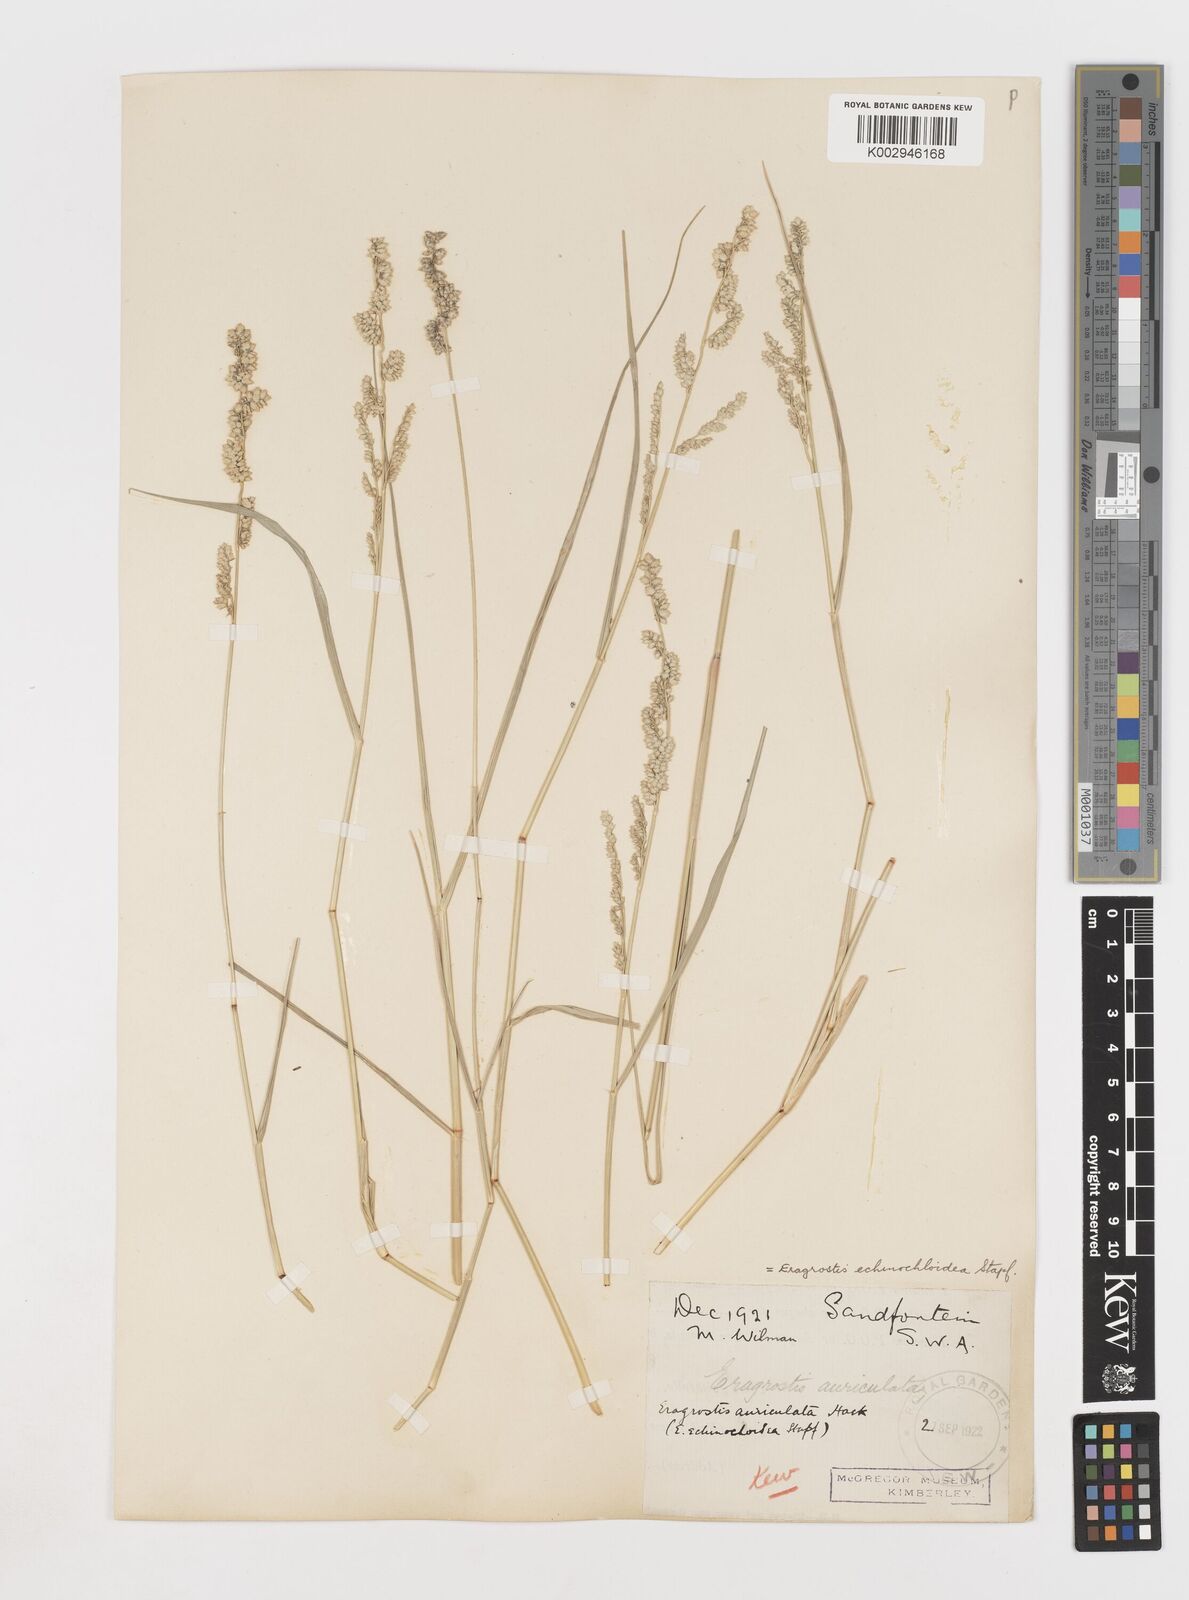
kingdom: Plantae
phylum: Tracheophyta
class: Liliopsida
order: Poales
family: Poaceae
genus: Eragrostis
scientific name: Eragrostis echinochloidea
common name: African lovegrass
